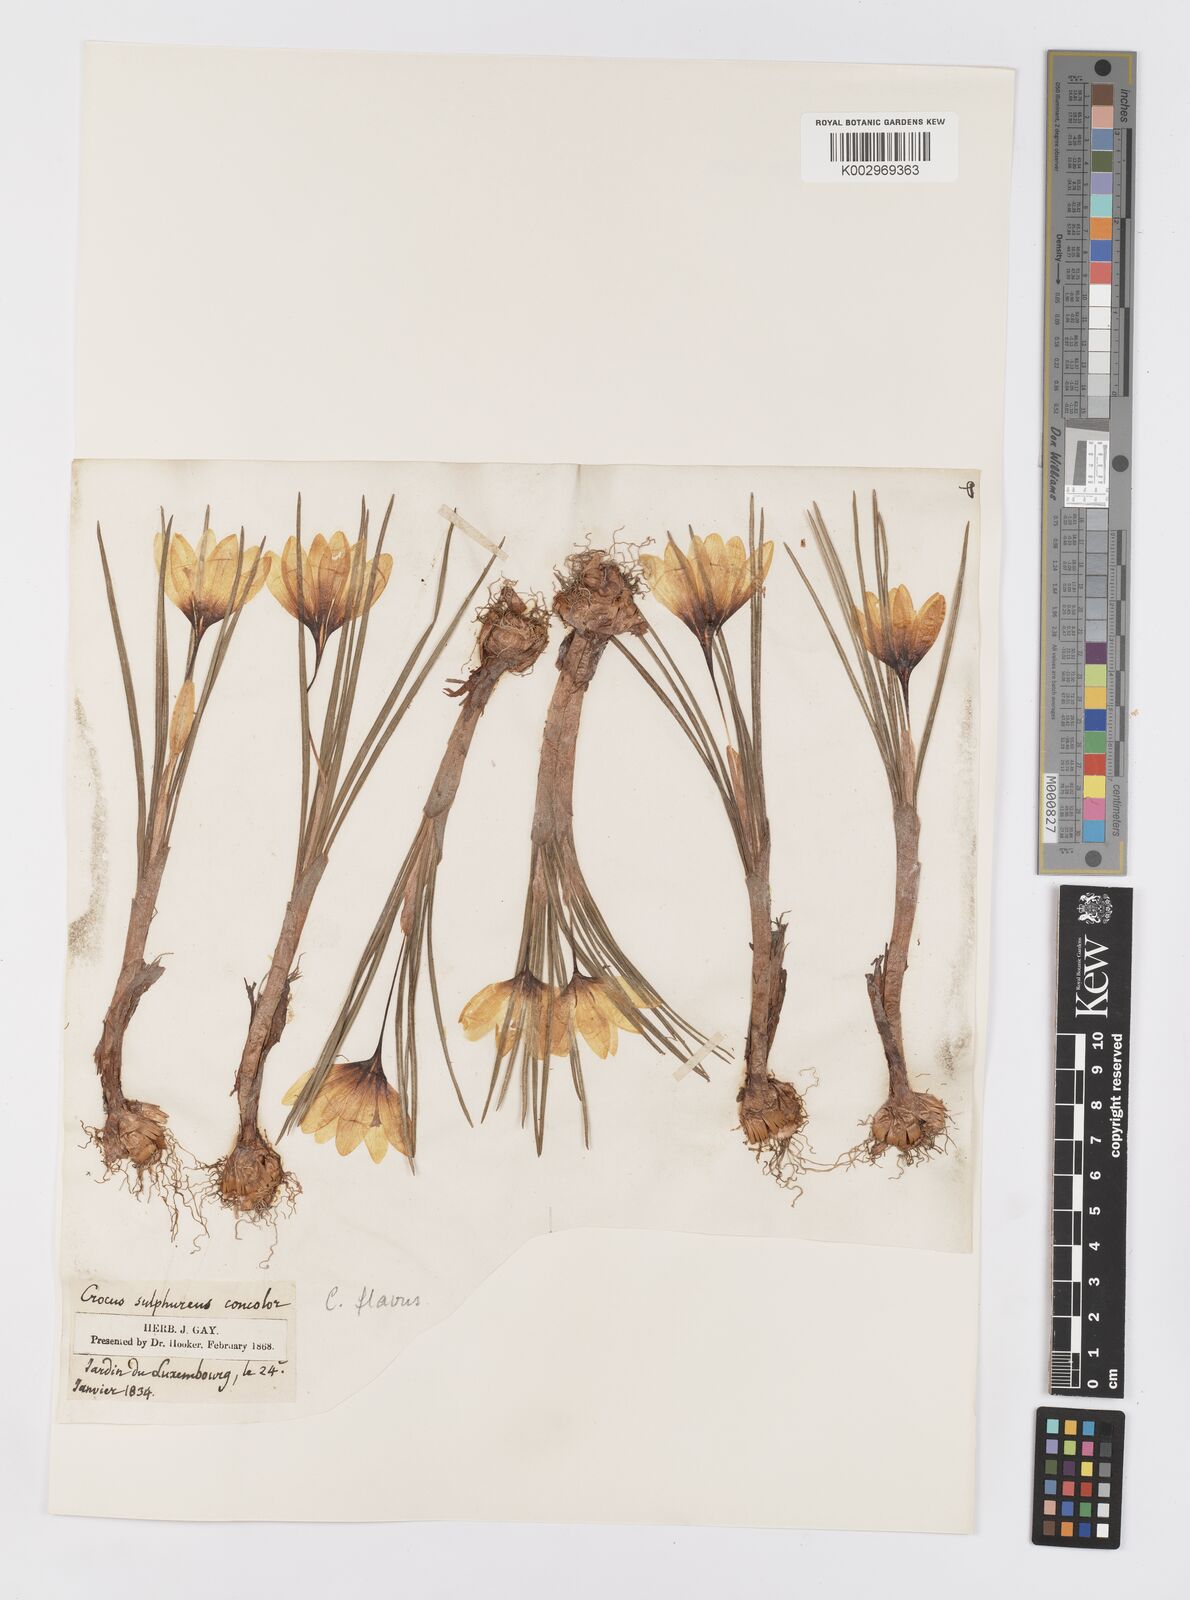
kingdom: Plantae
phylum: Tracheophyta
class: Liliopsida
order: Asparagales
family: Iridaceae
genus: Crocus
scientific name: Crocus flavus
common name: Yellow crocus
